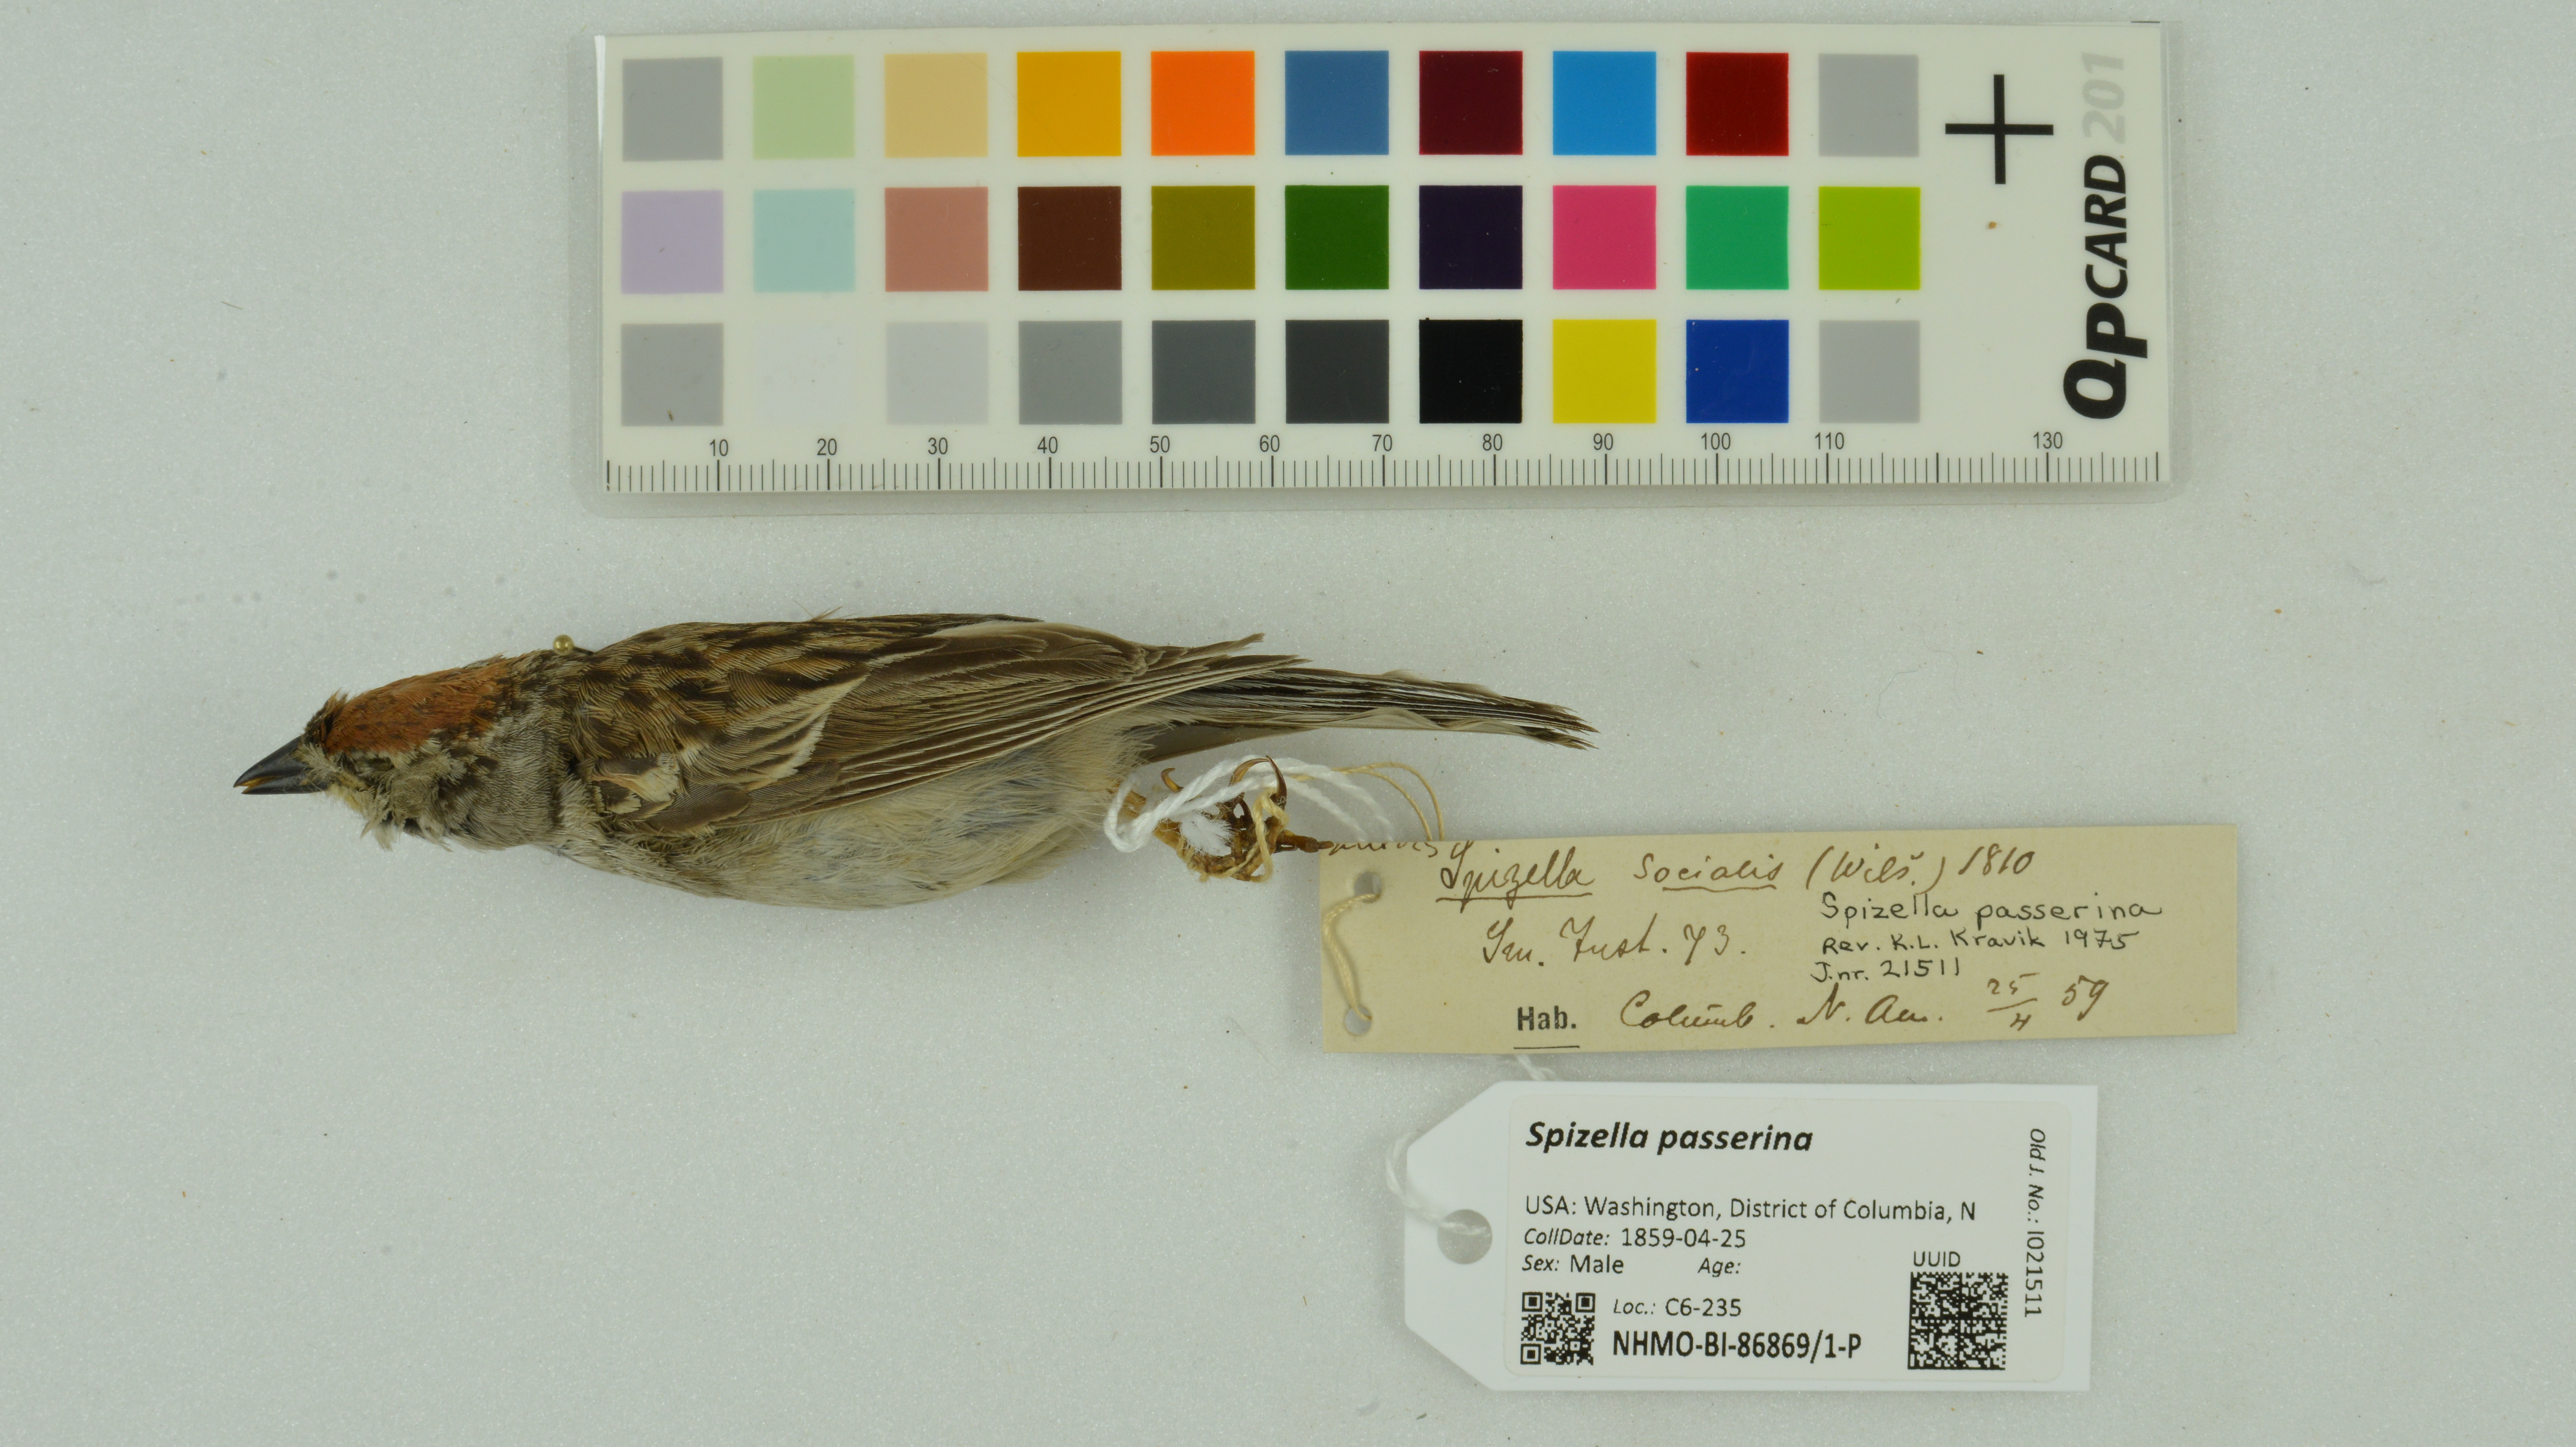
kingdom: Animalia
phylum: Chordata
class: Aves
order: Passeriformes
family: Passerellidae
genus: Spizella
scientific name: Spizella passerina
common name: Chipping sparrow
